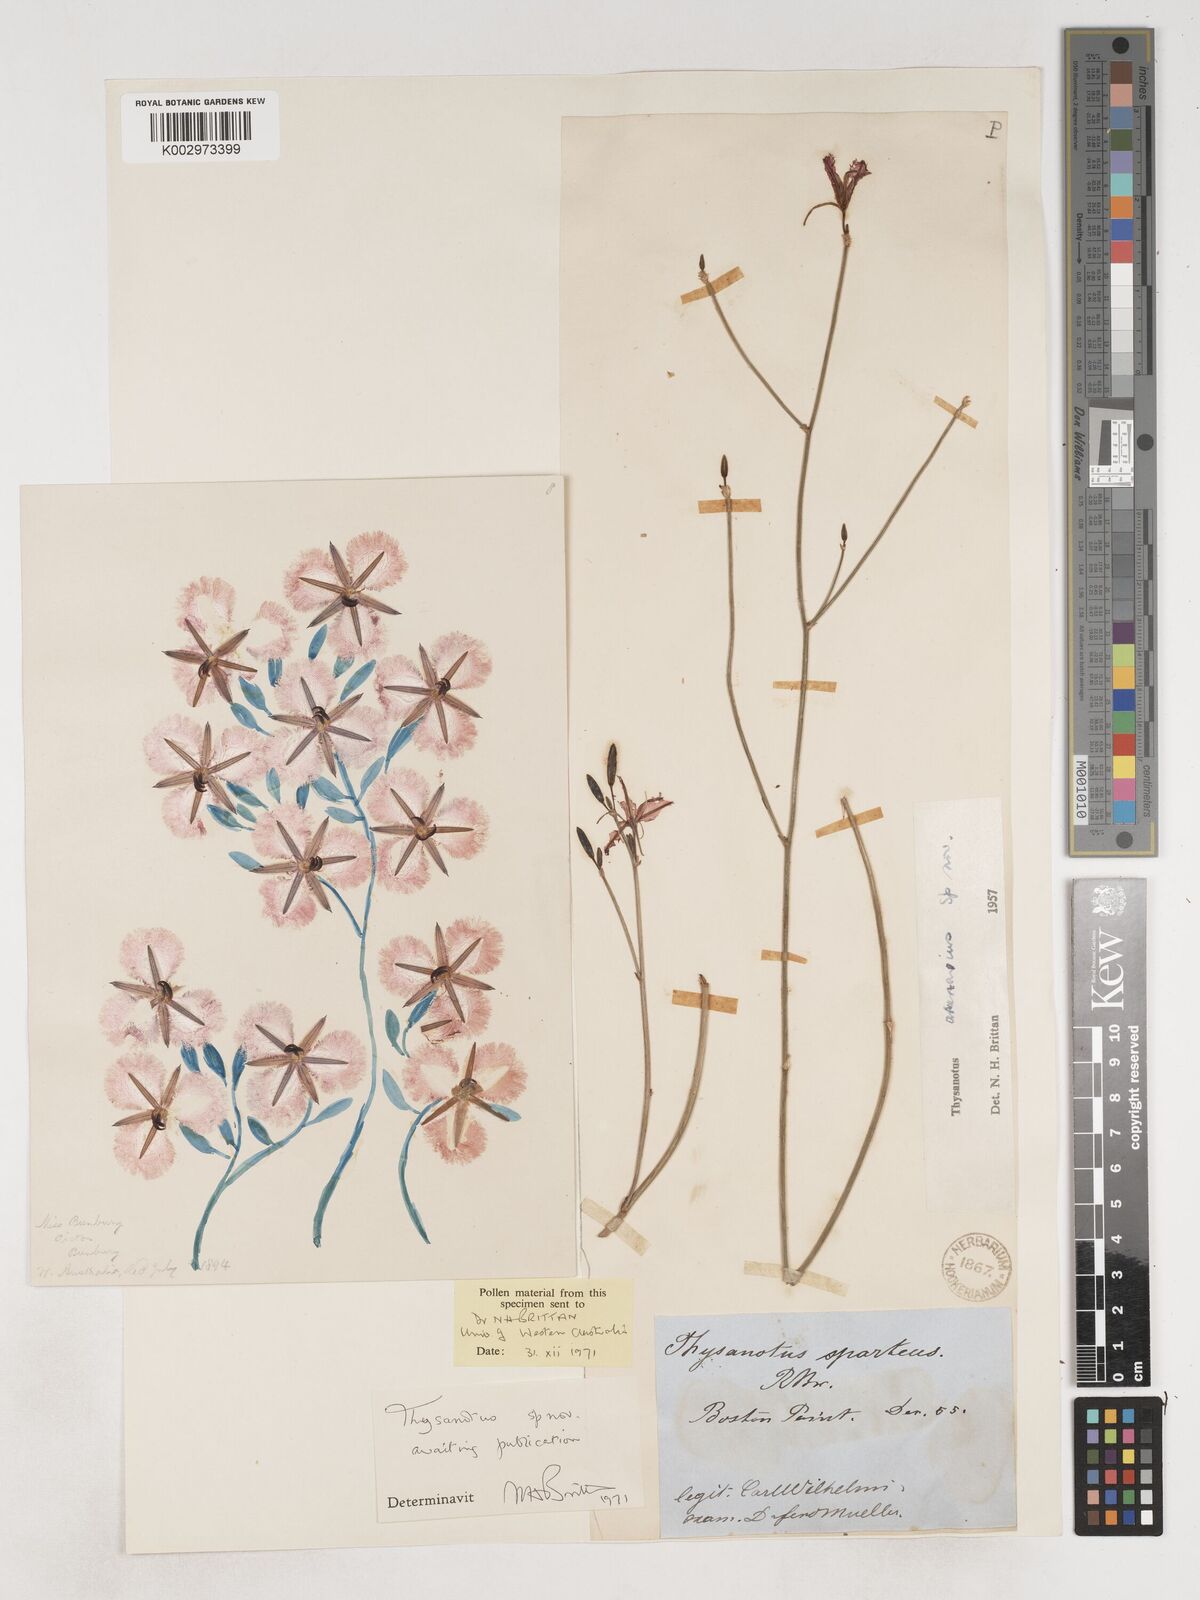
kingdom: Plantae
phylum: Tracheophyta
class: Liliopsida
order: Asparagales
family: Asparagaceae
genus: Thysanotus
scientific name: Thysanotus
